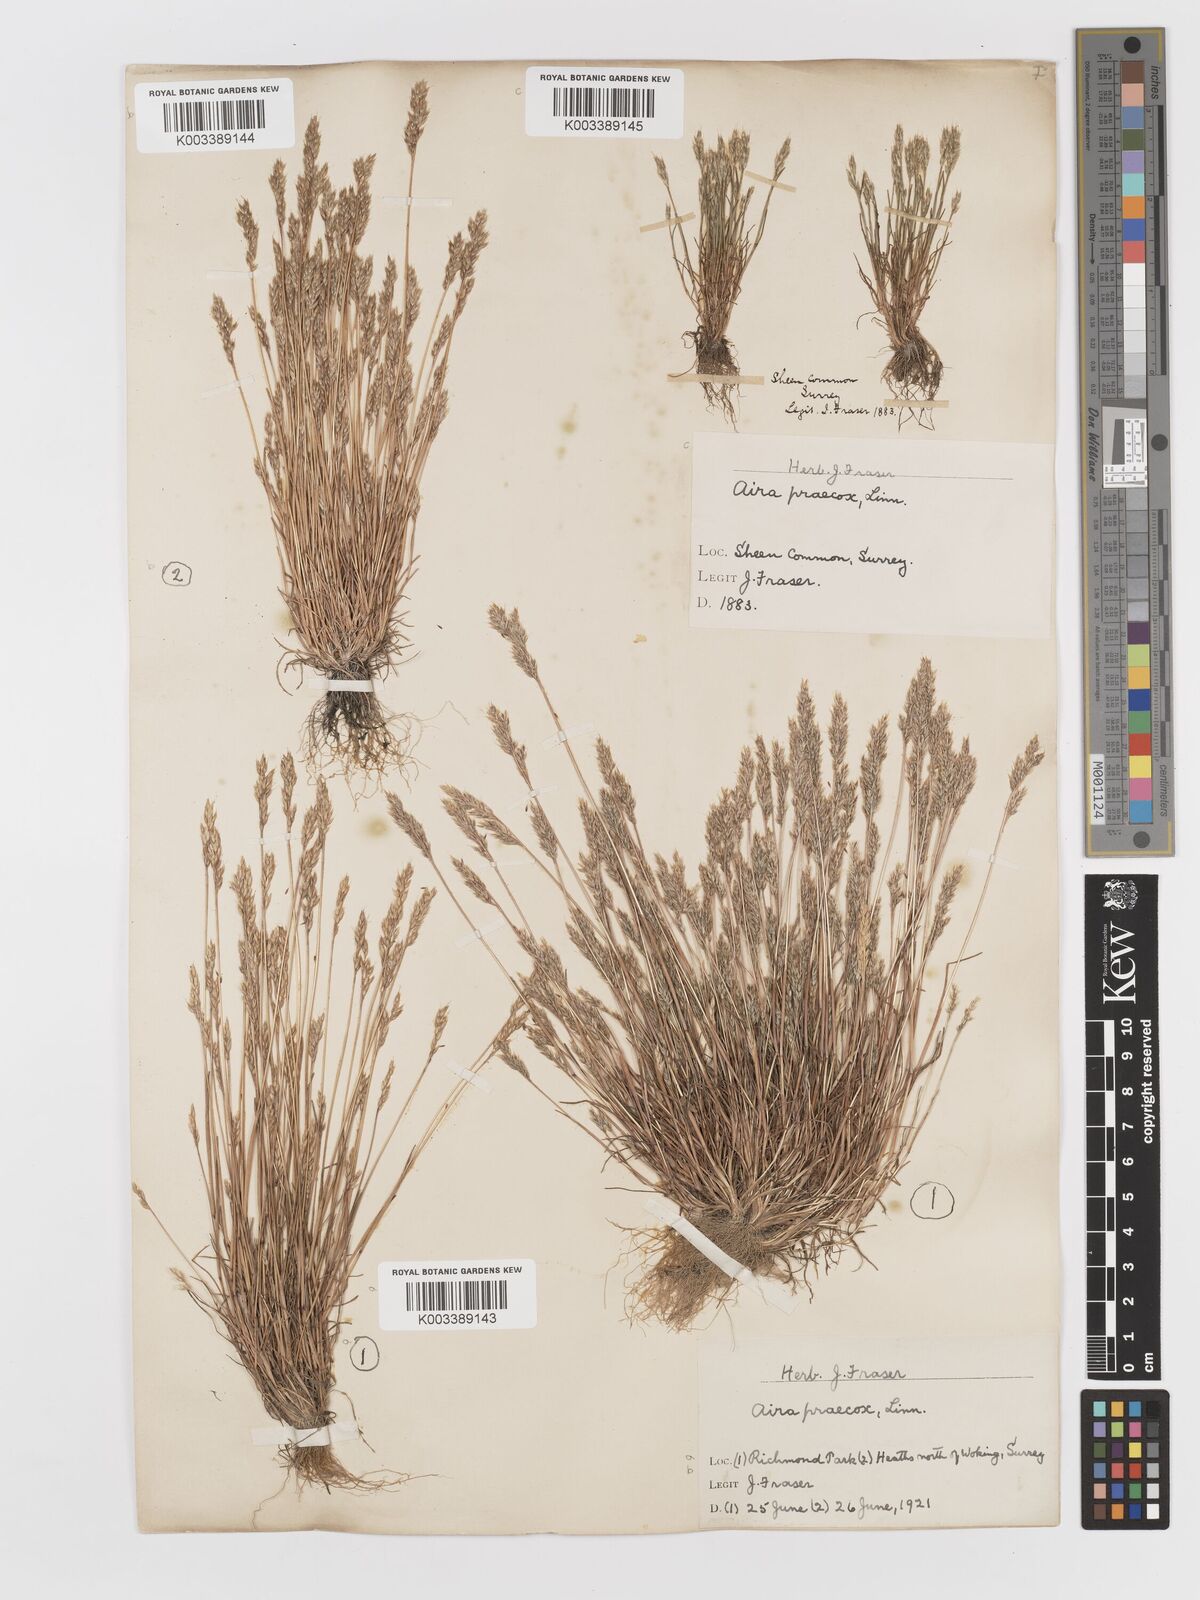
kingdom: Plantae
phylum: Tracheophyta
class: Liliopsida
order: Poales
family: Poaceae
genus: Aira
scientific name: Aira praecox
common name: Early hair-grass
